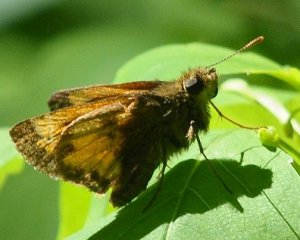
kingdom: Animalia
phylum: Arthropoda
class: Insecta
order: Lepidoptera
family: Hesperiidae
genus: Lon
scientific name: Lon hobomok
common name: Hobomok Skipper
